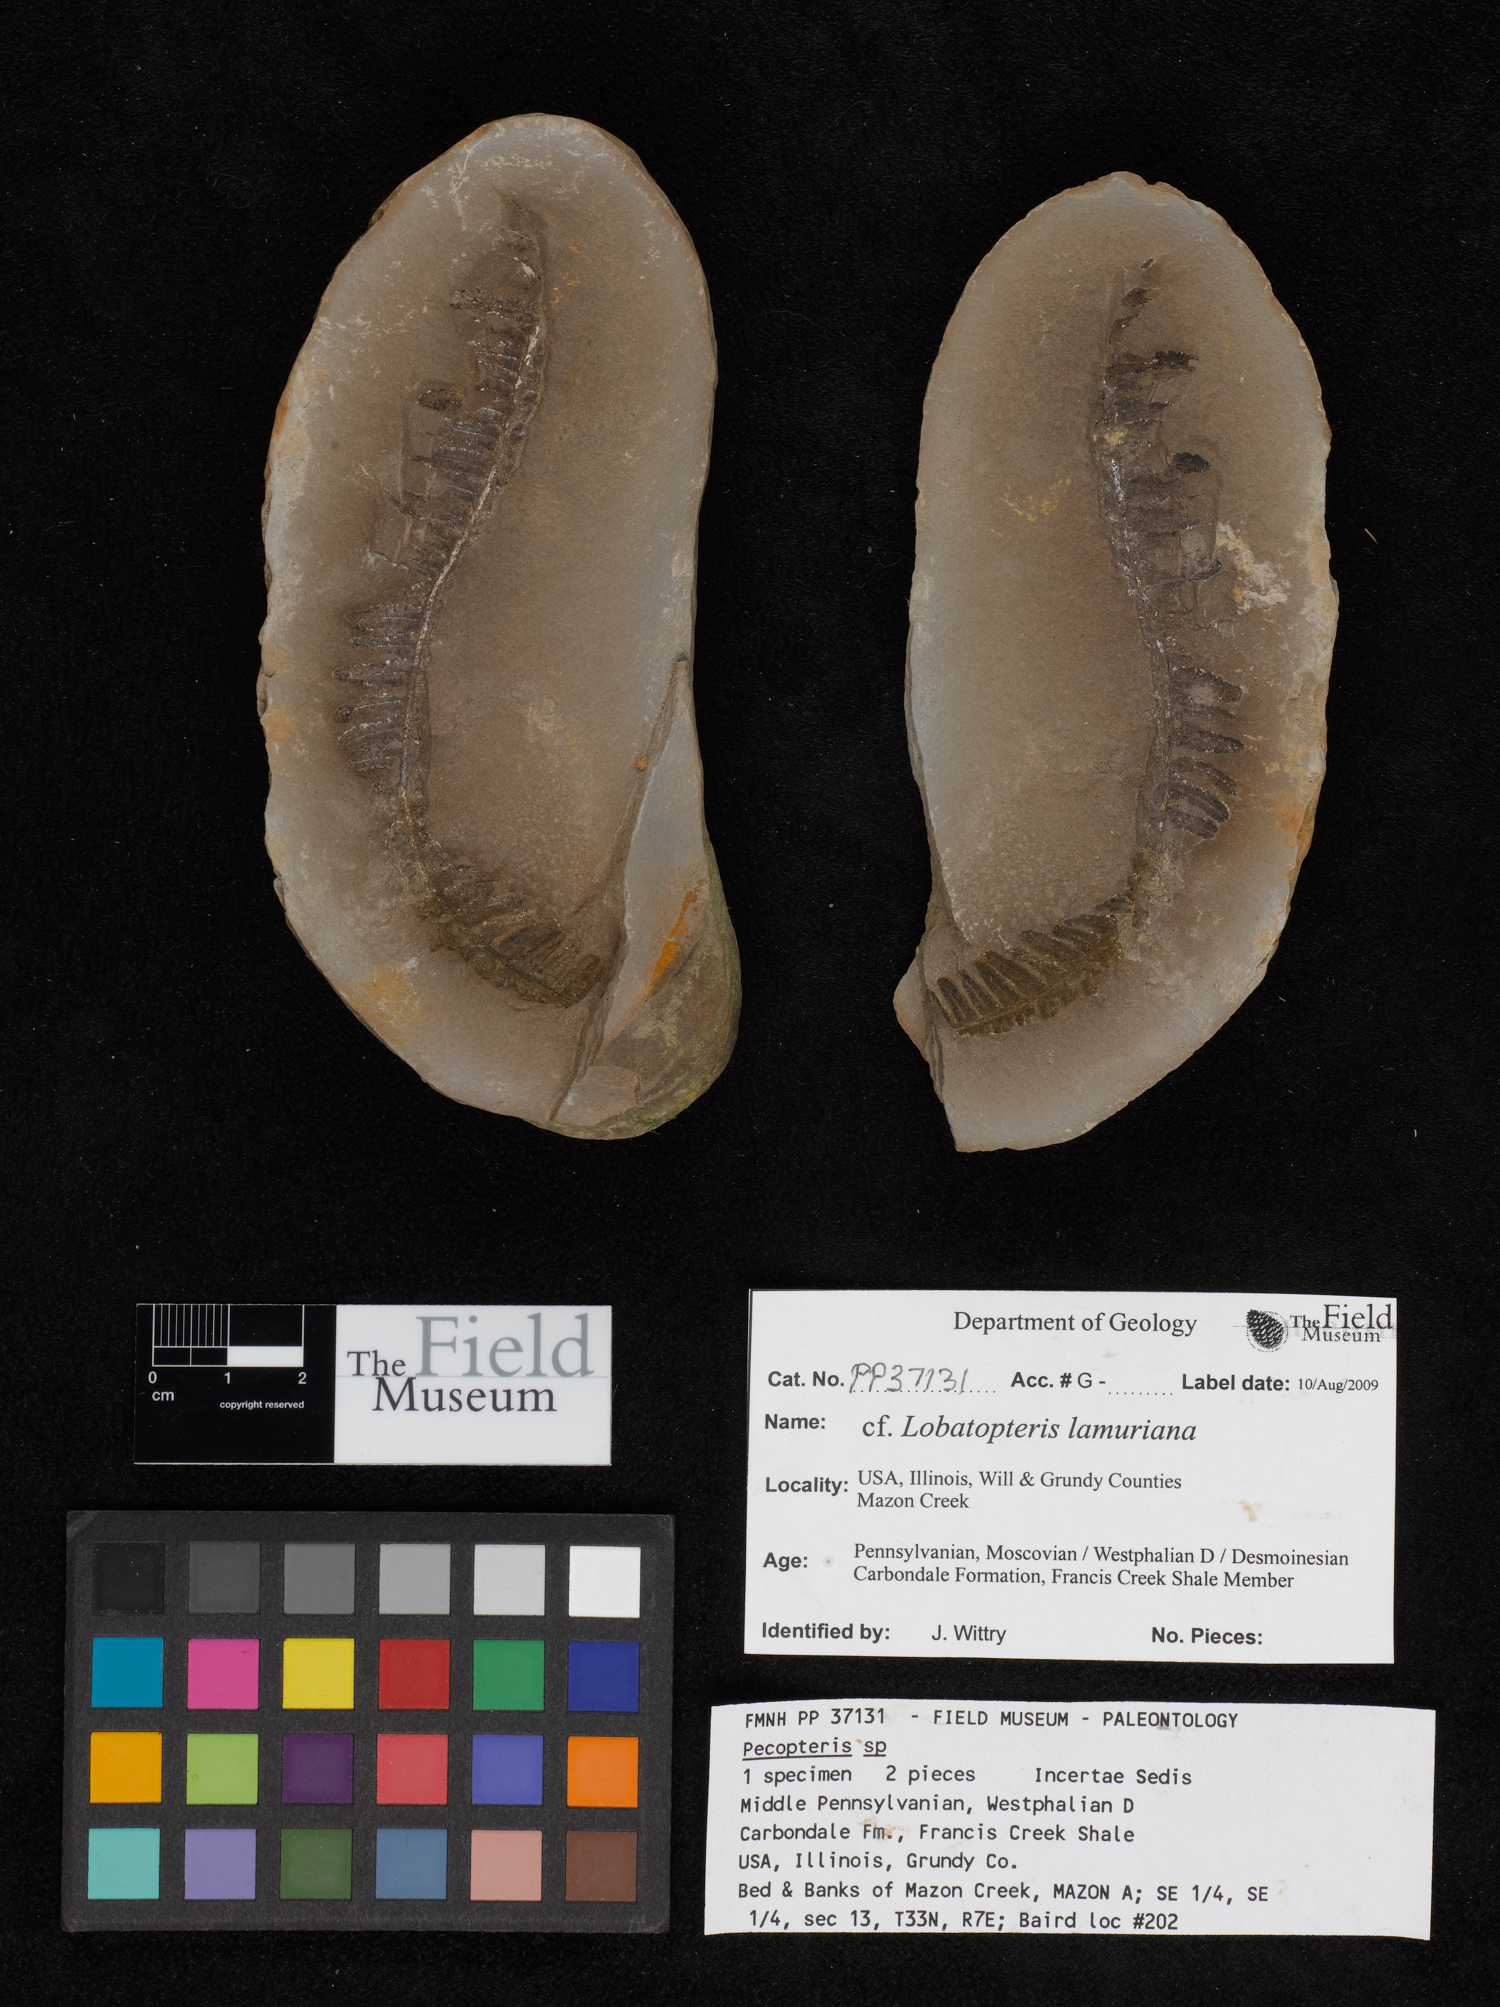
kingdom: Plantae
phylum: Tracheophyta
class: Polypodiopsida
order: Marattiales
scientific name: Marattiales
